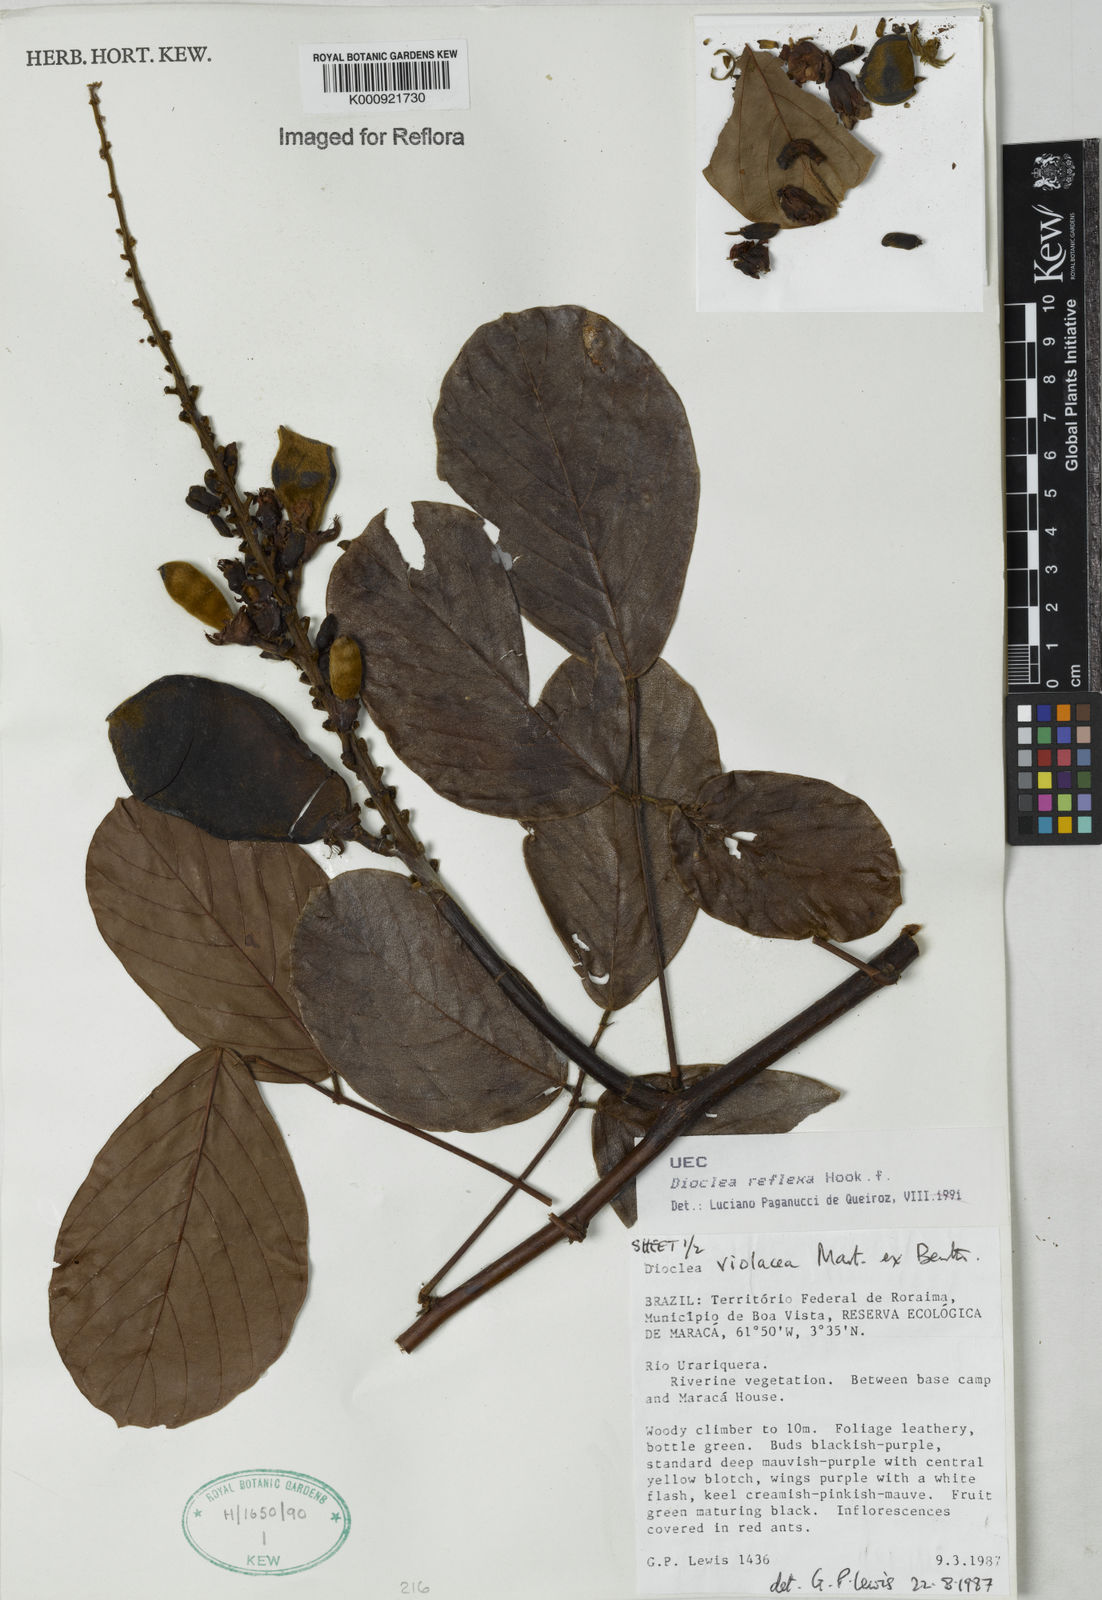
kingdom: Plantae
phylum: Tracheophyta
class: Magnoliopsida
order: Fabales
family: Fabaceae
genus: Macropsychanthus
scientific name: Macropsychanthus comosus
